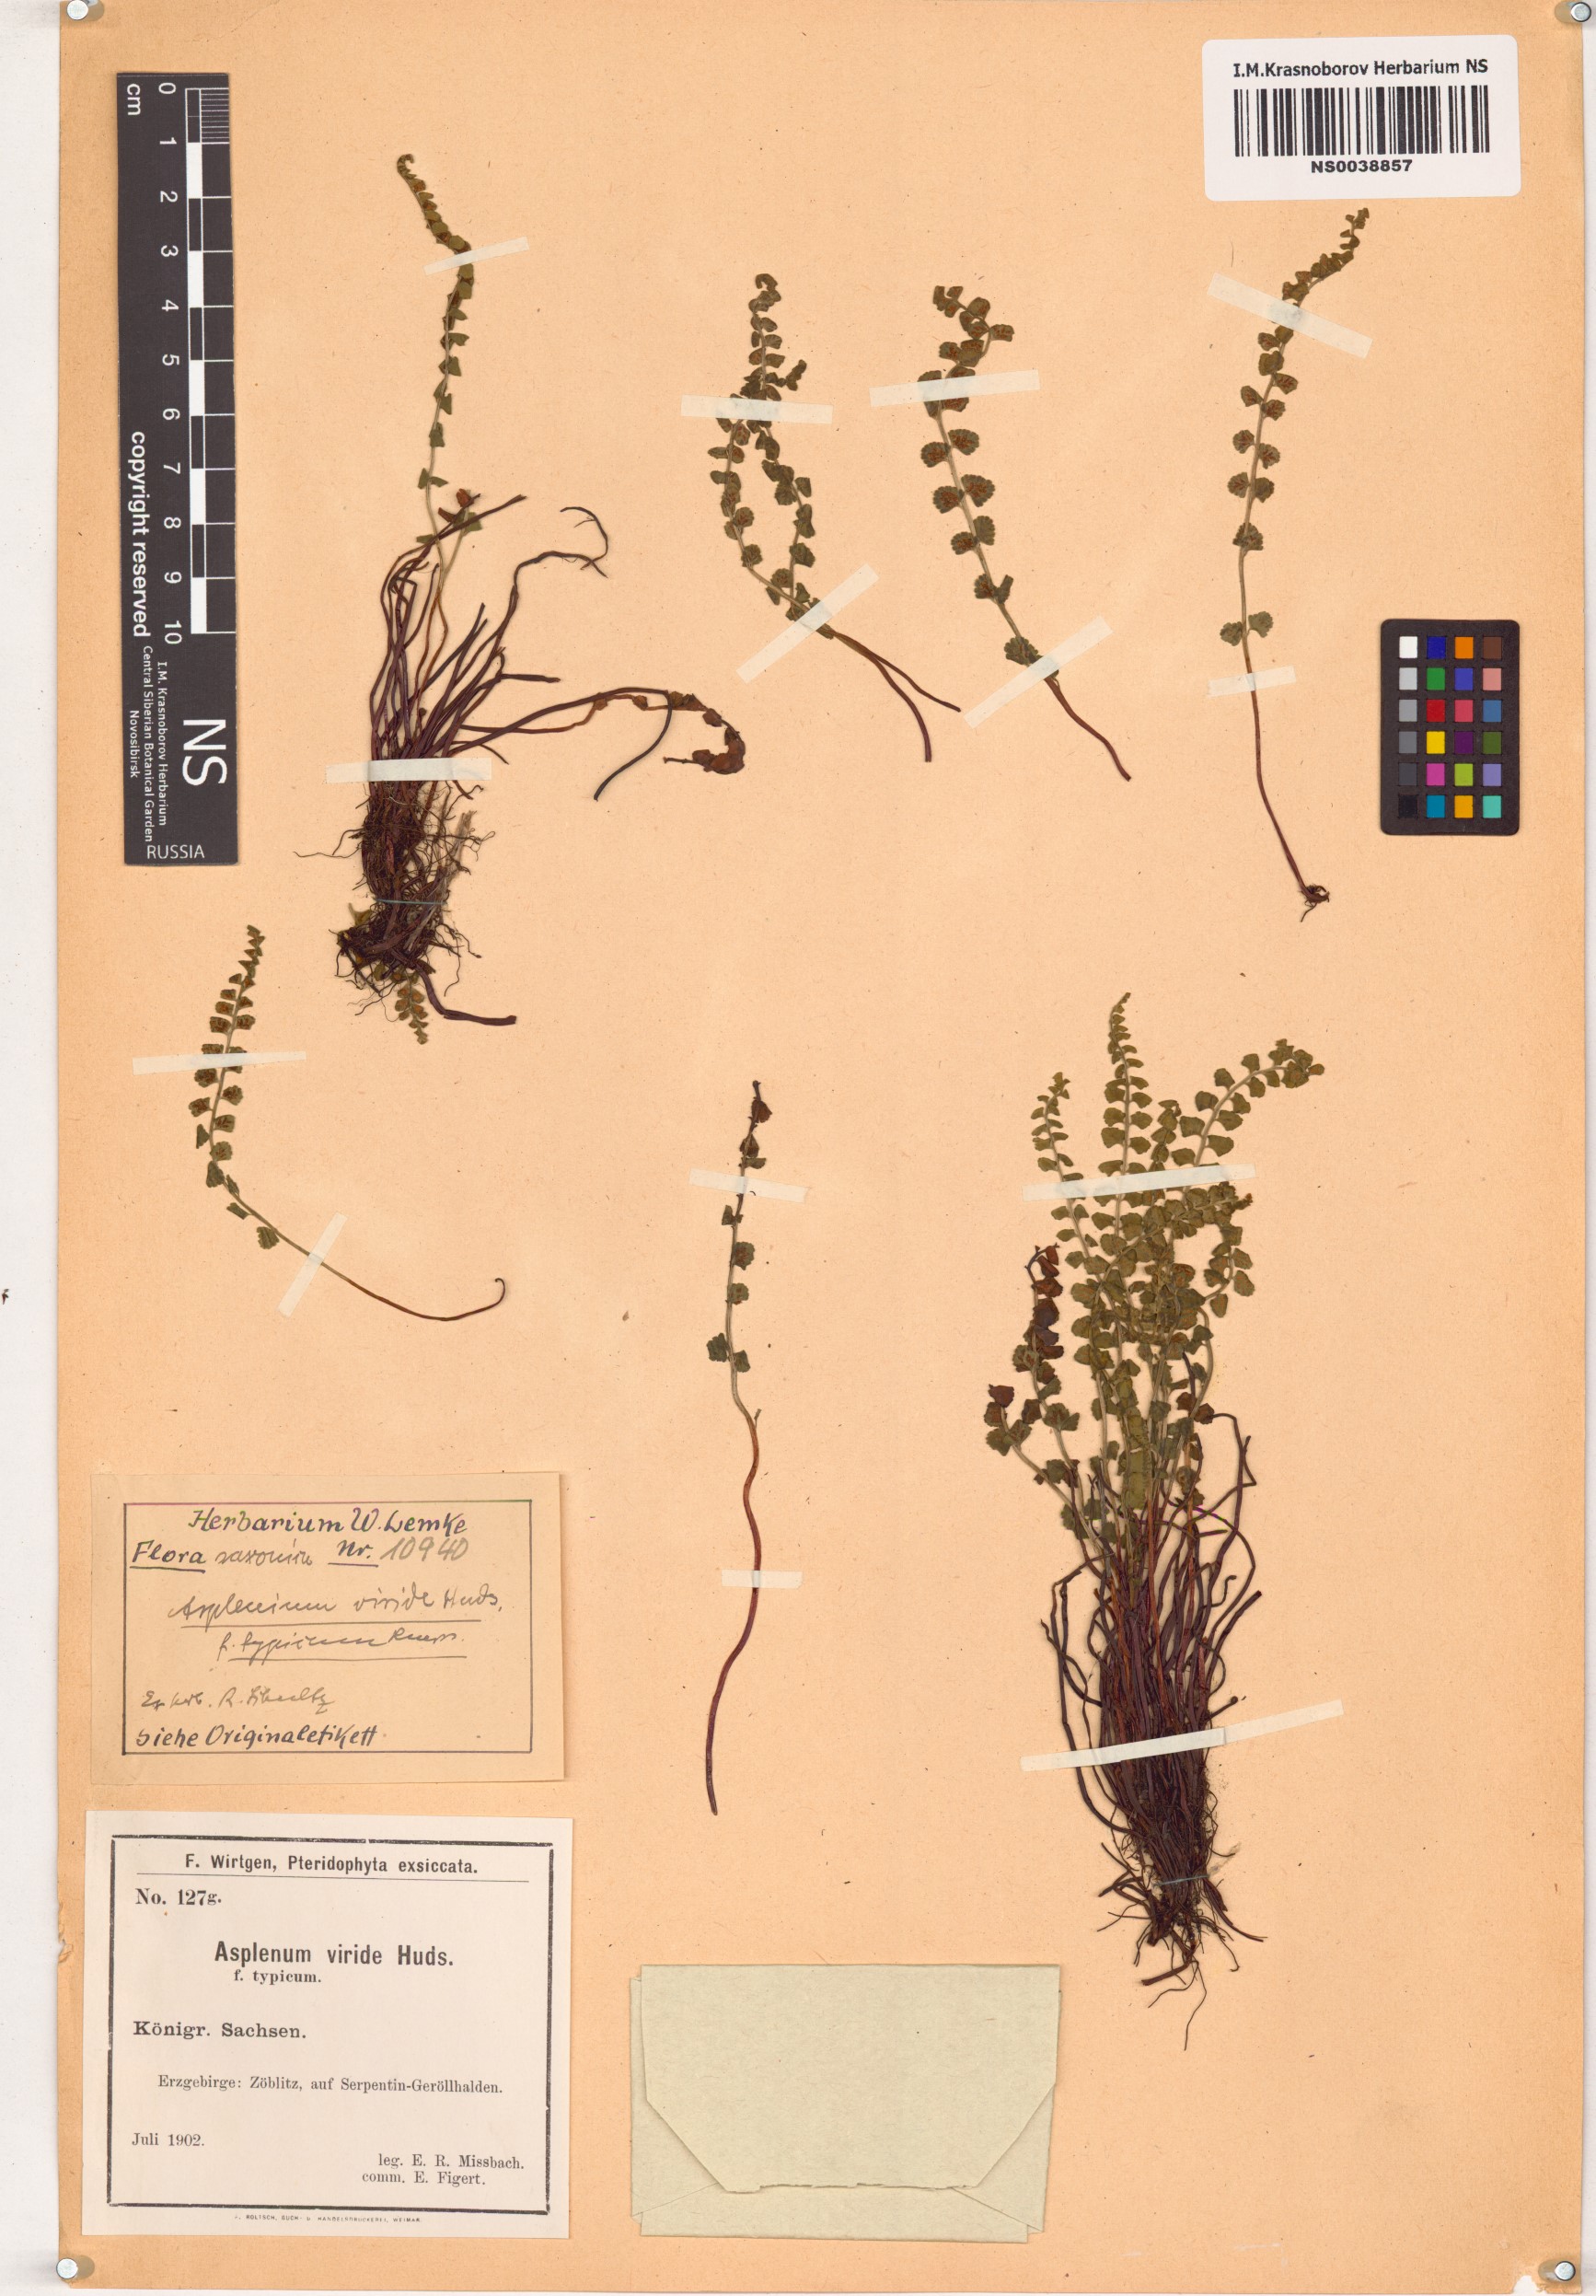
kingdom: Plantae
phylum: Tracheophyta
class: Polypodiopsida
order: Polypodiales
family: Aspleniaceae
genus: Asplenium
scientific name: Asplenium viride
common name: Green spleenwort
